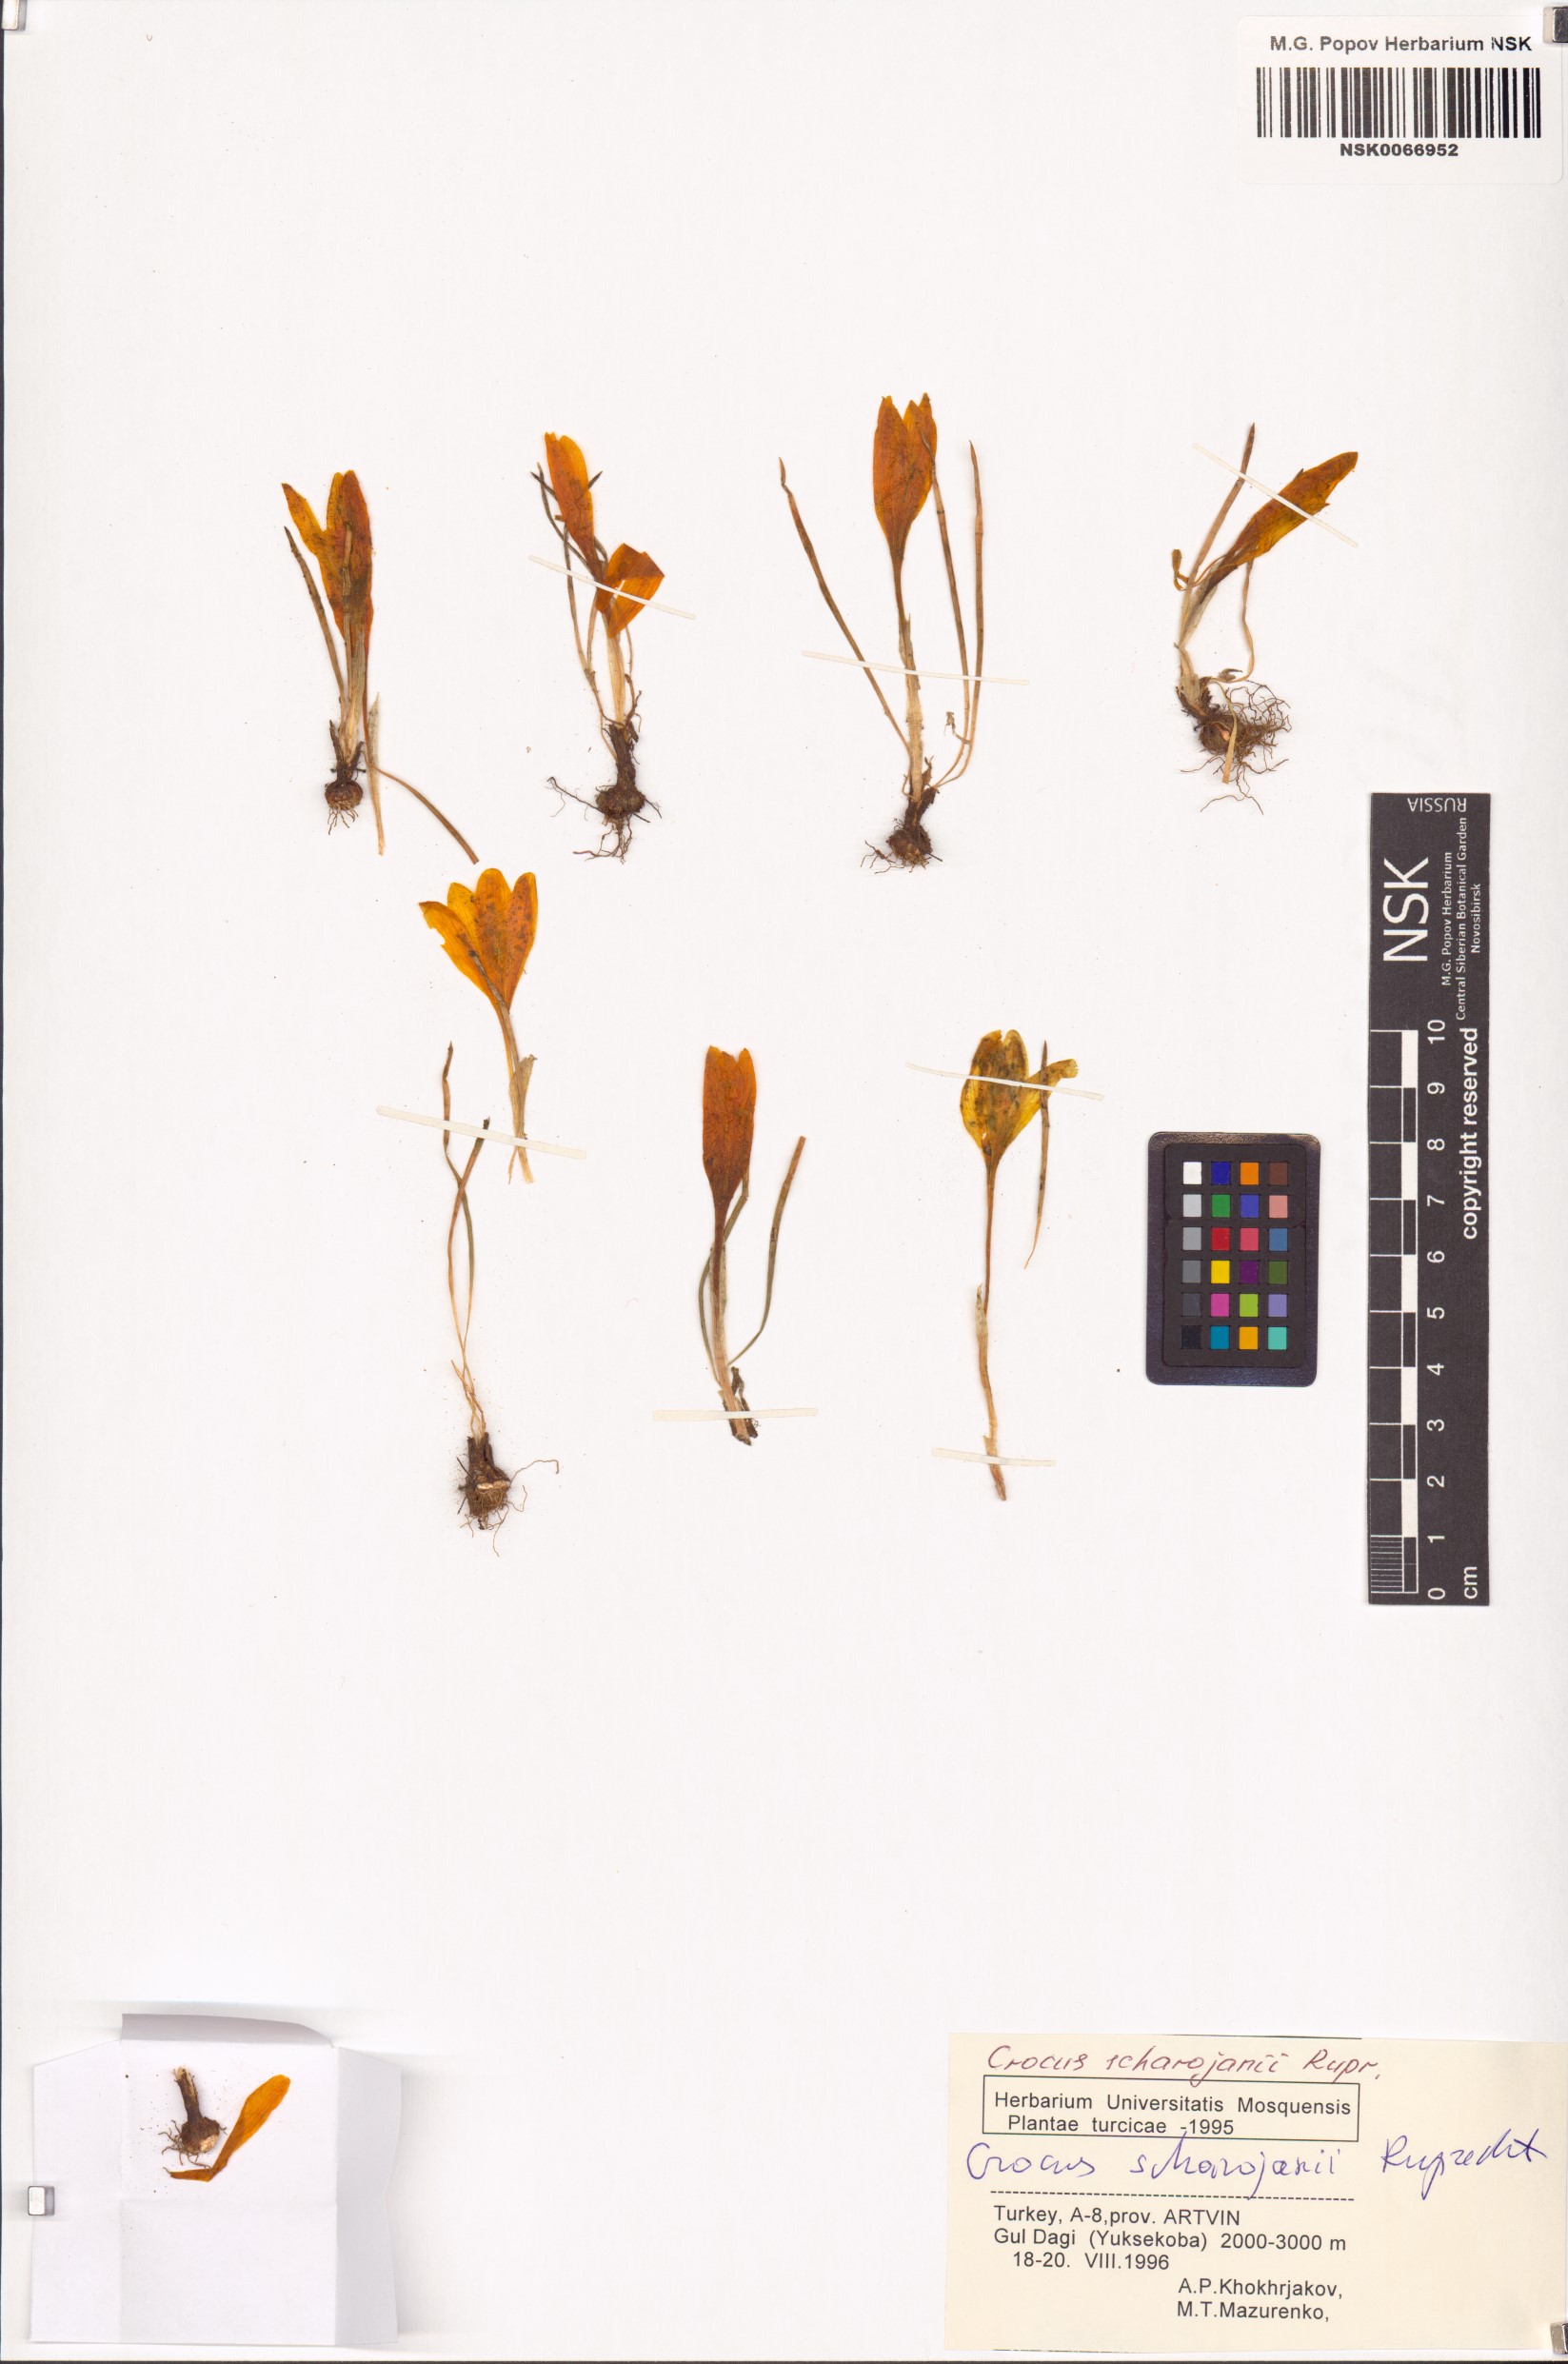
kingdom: Plantae
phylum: Tracheophyta
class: Liliopsida
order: Asparagales
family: Iridaceae
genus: Crocus
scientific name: Crocus scharojanii
